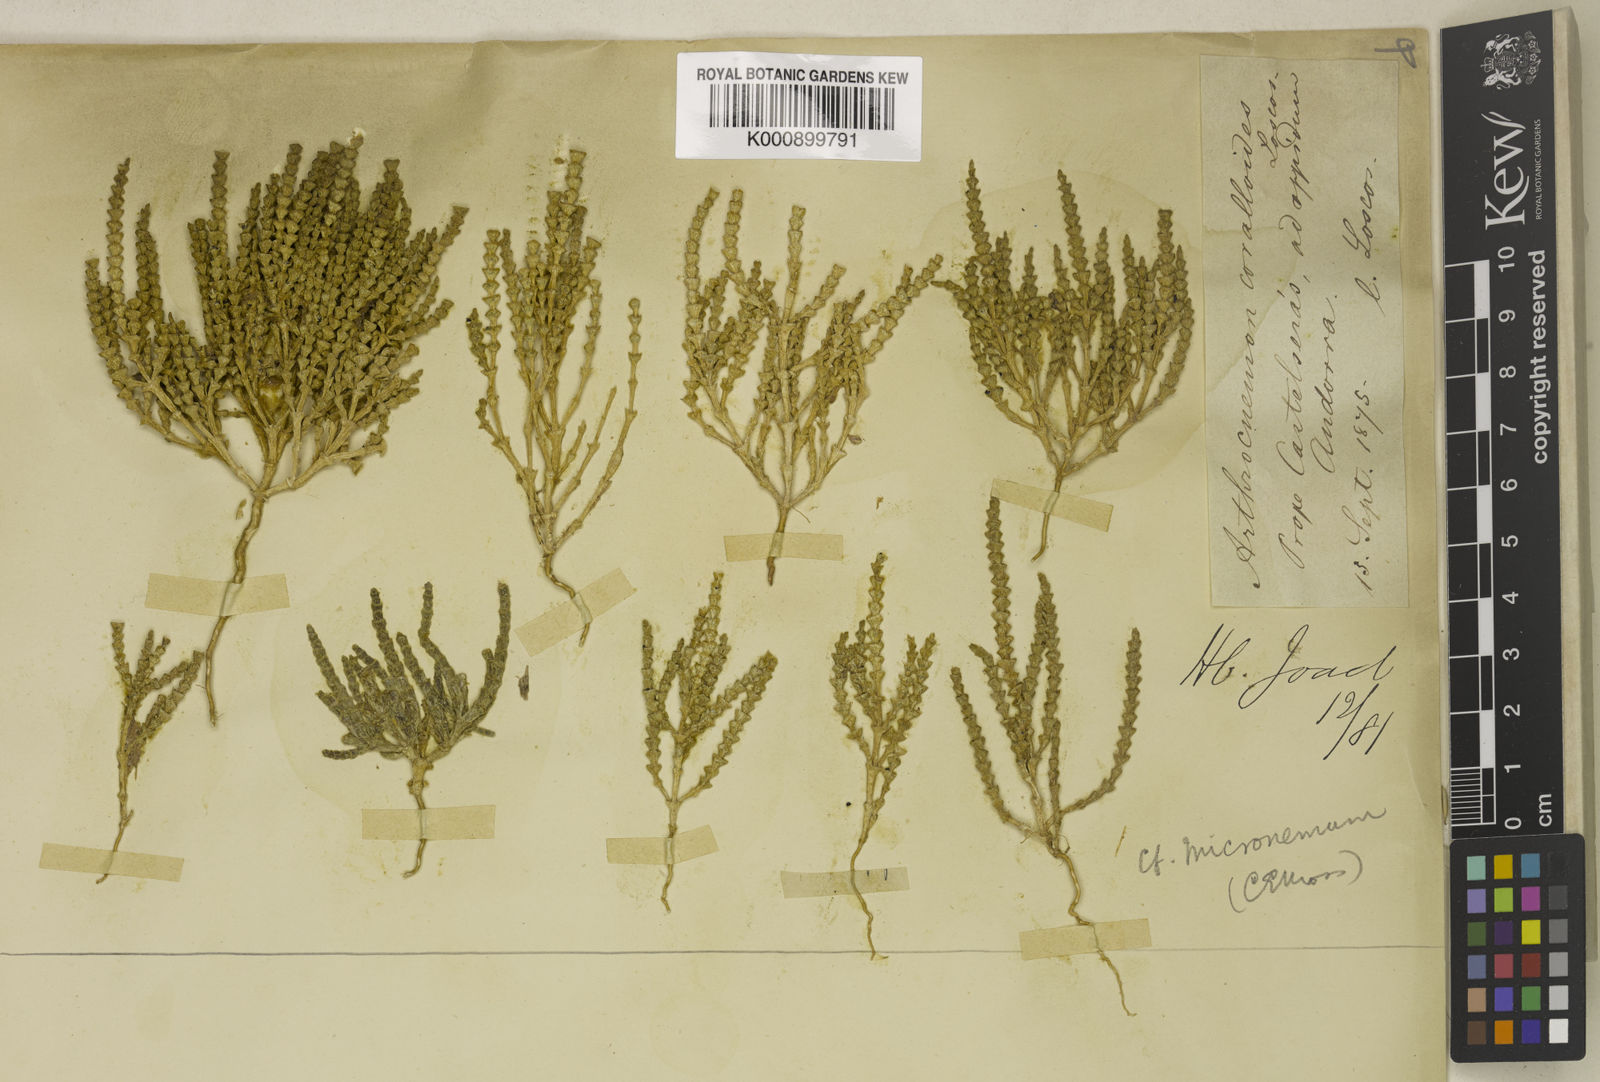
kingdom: Plantae
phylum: Tracheophyta
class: Magnoliopsida
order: Caryophyllales
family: Amaranthaceae
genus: Microcnemum
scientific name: Microcnemum coralloides
